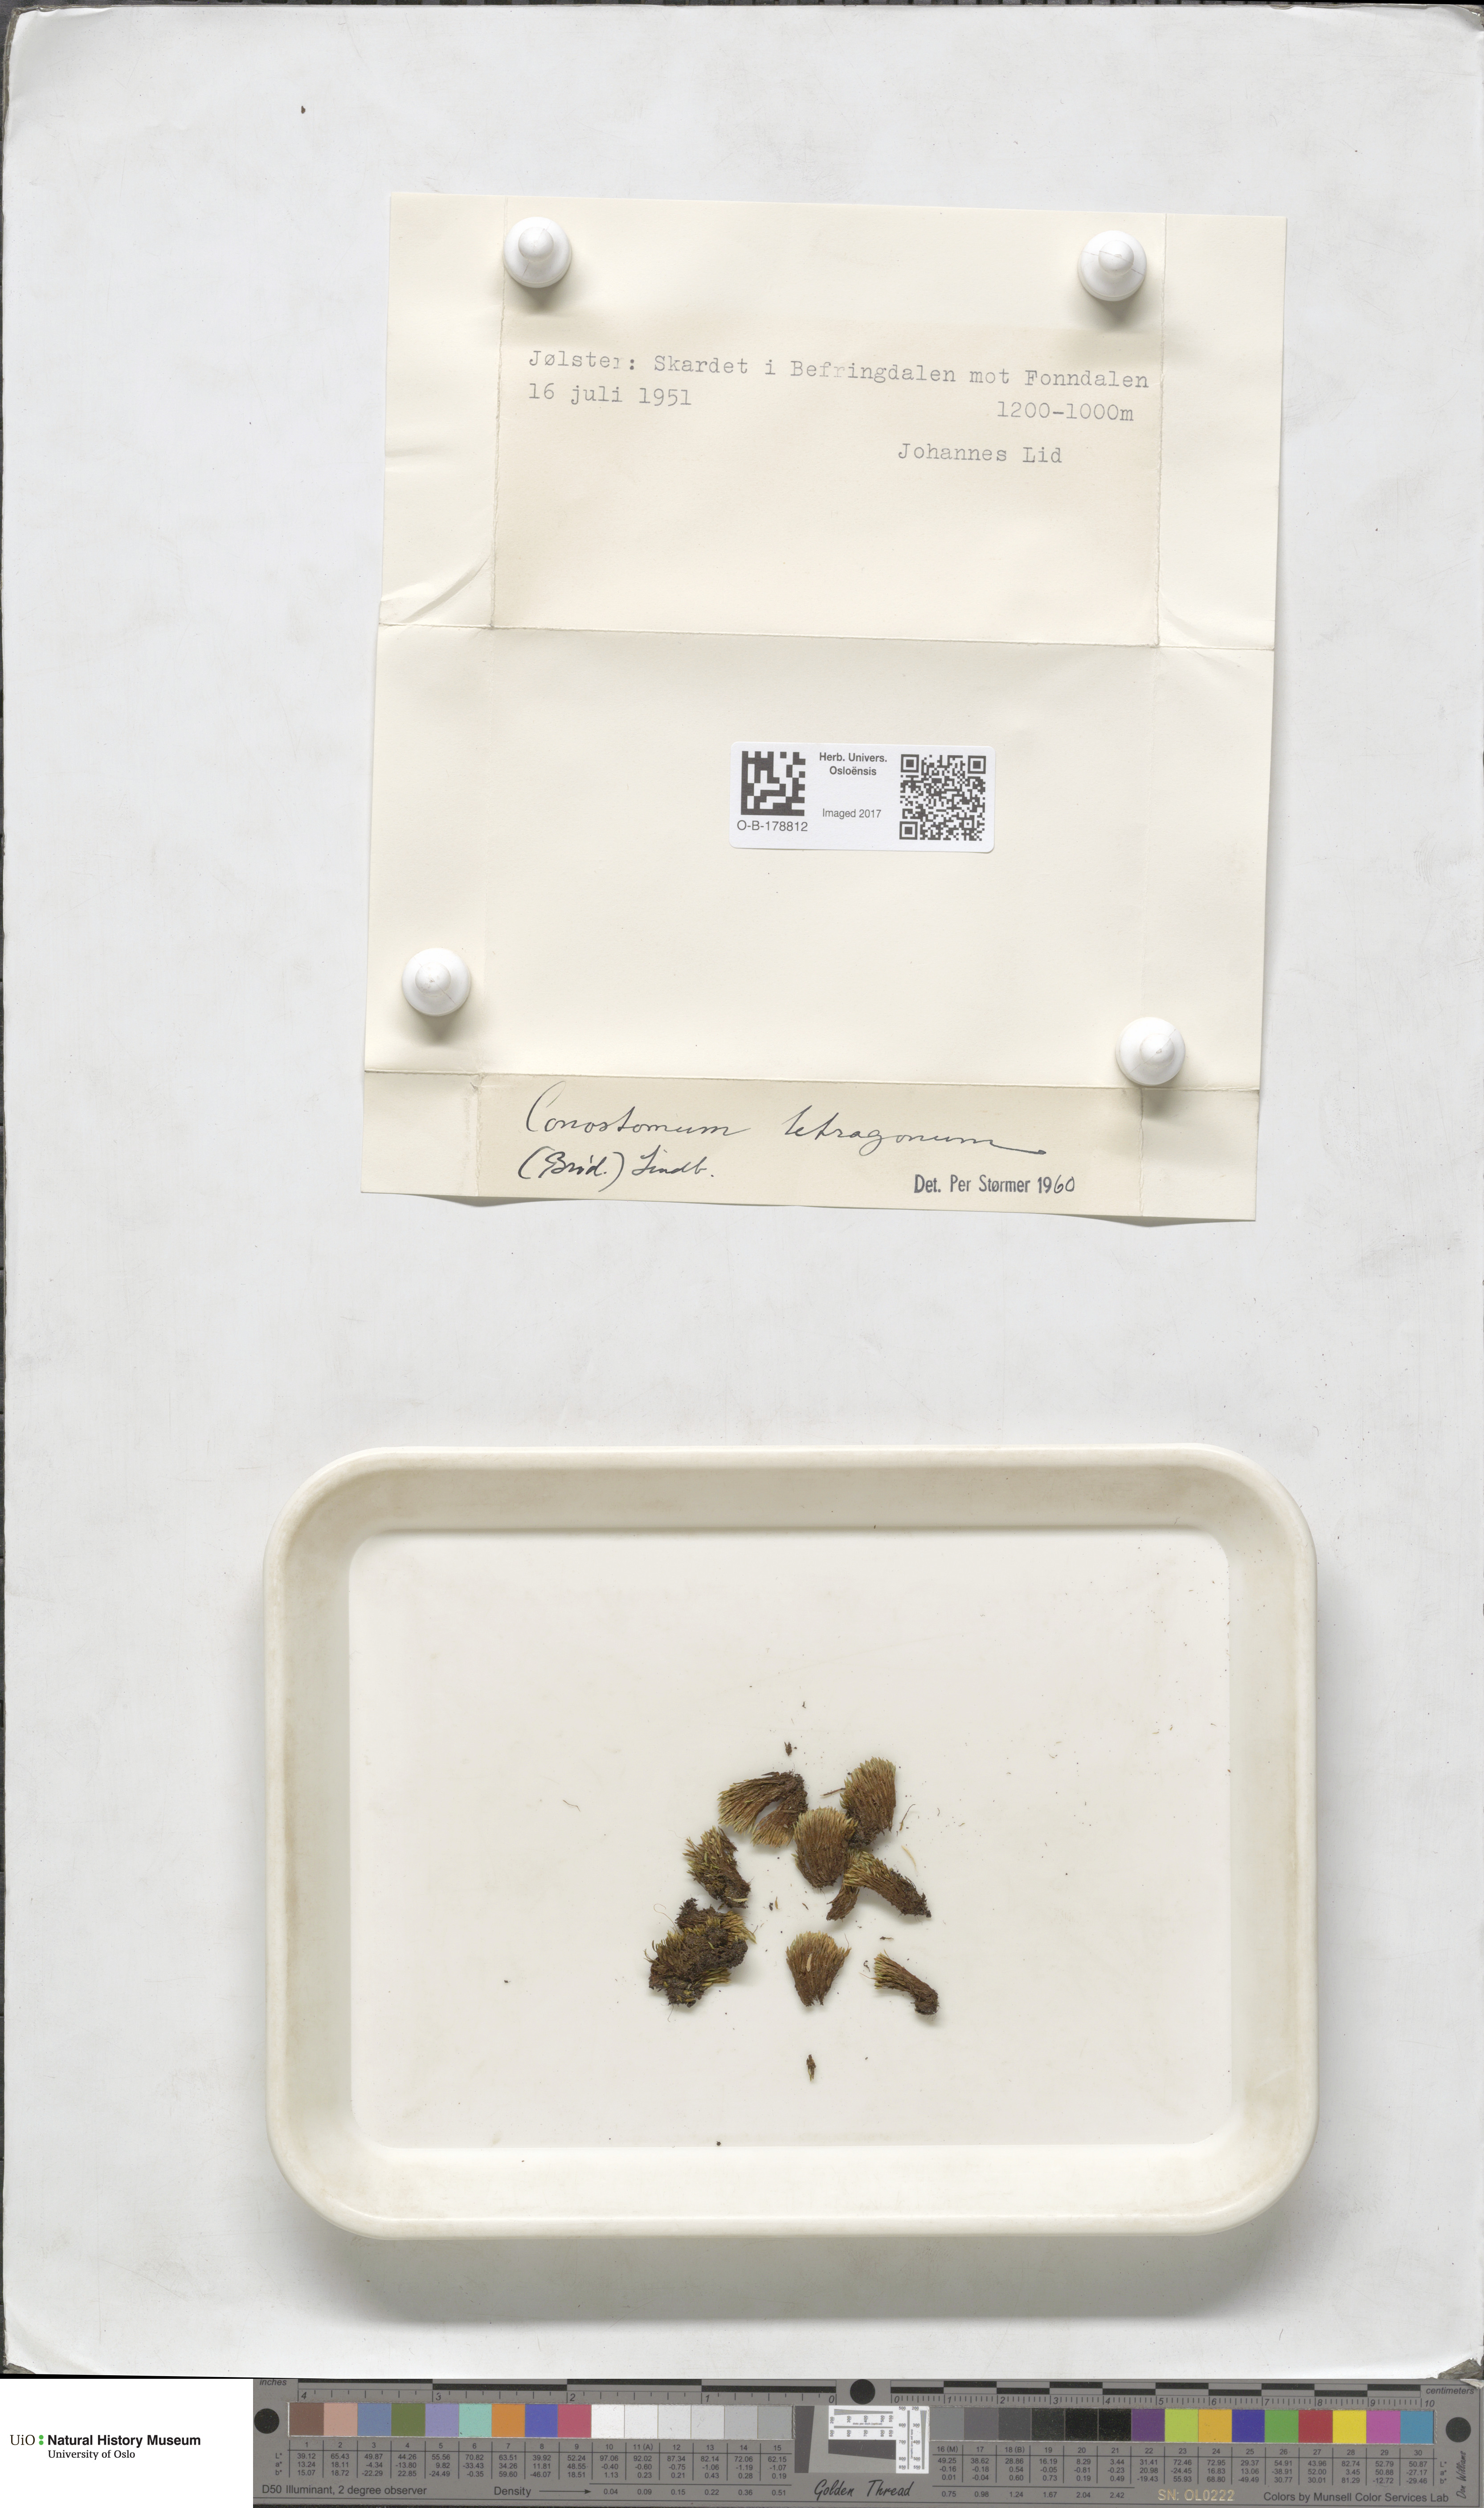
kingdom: Plantae
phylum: Bryophyta
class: Bryopsida
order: Bartramiales
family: Bartramiaceae
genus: Conostomum
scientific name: Conostomum tetragonum
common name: Helmet moss
